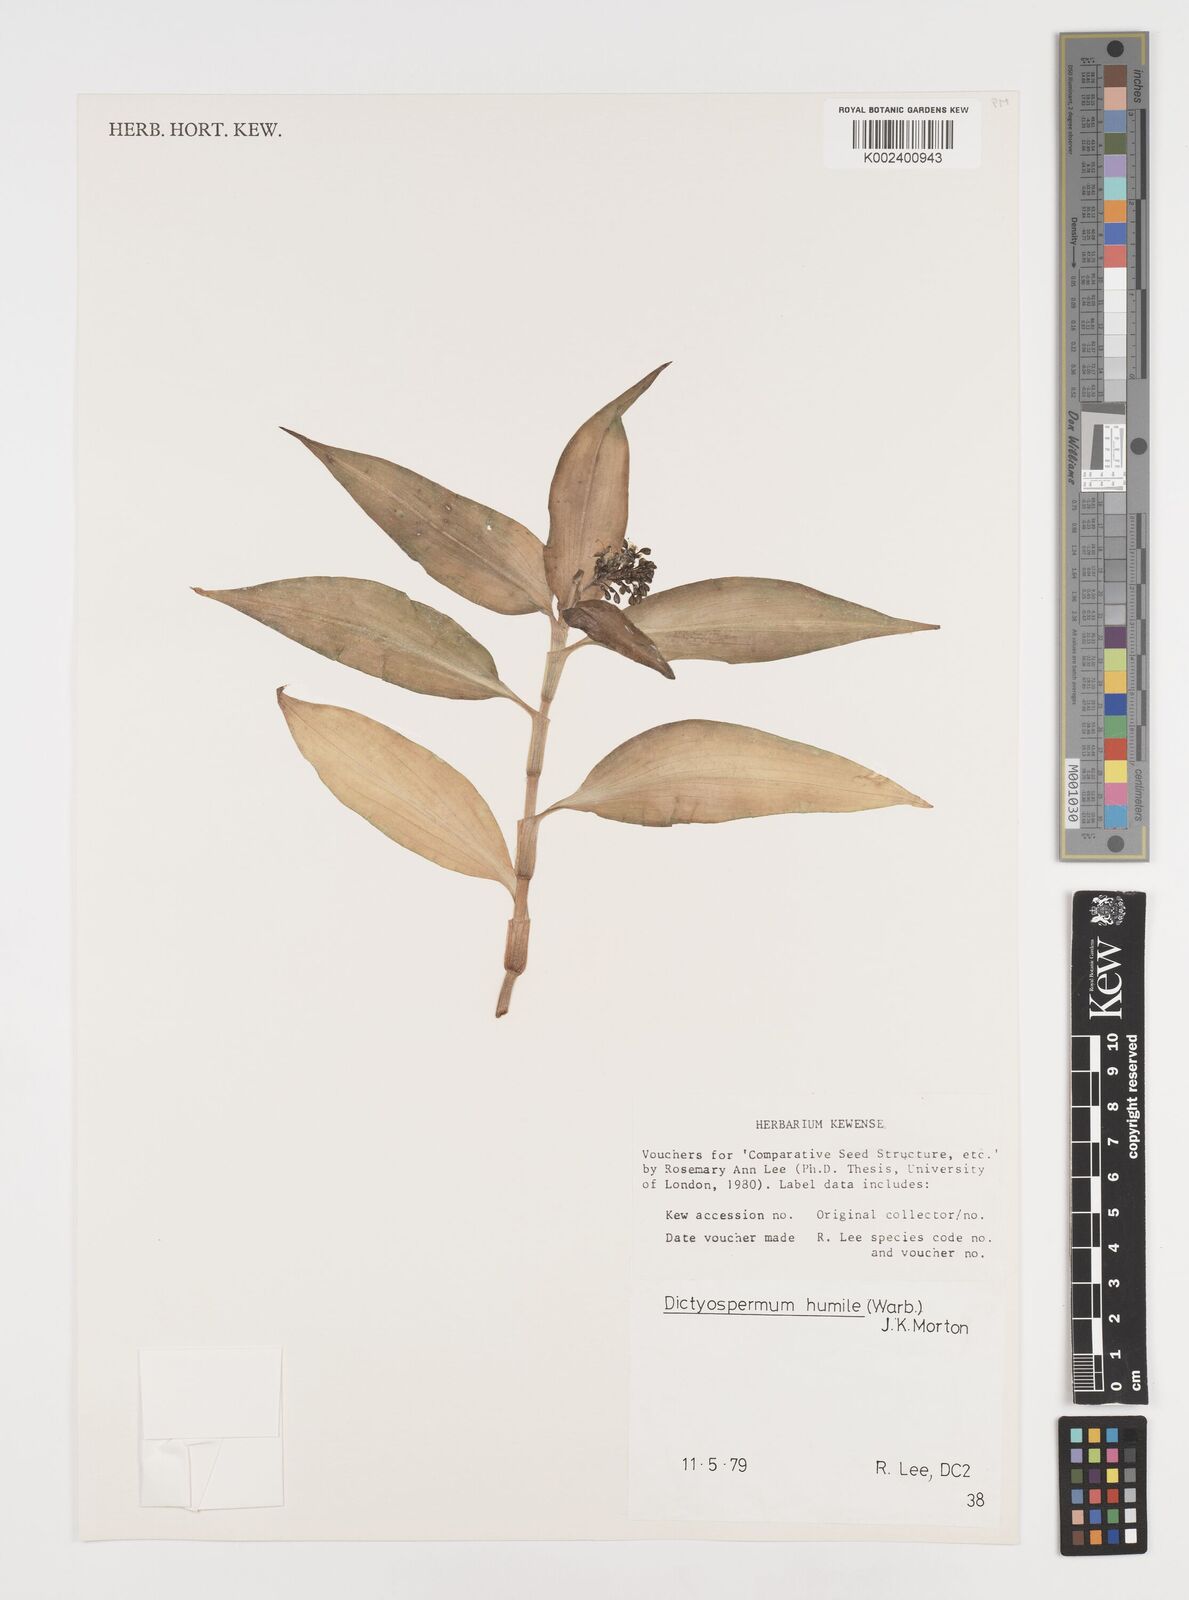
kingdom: Plantae
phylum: Tracheophyta
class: Liliopsida
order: Commelinales
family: Commelinaceae
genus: Dictyospermum
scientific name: Dictyospermum humile
